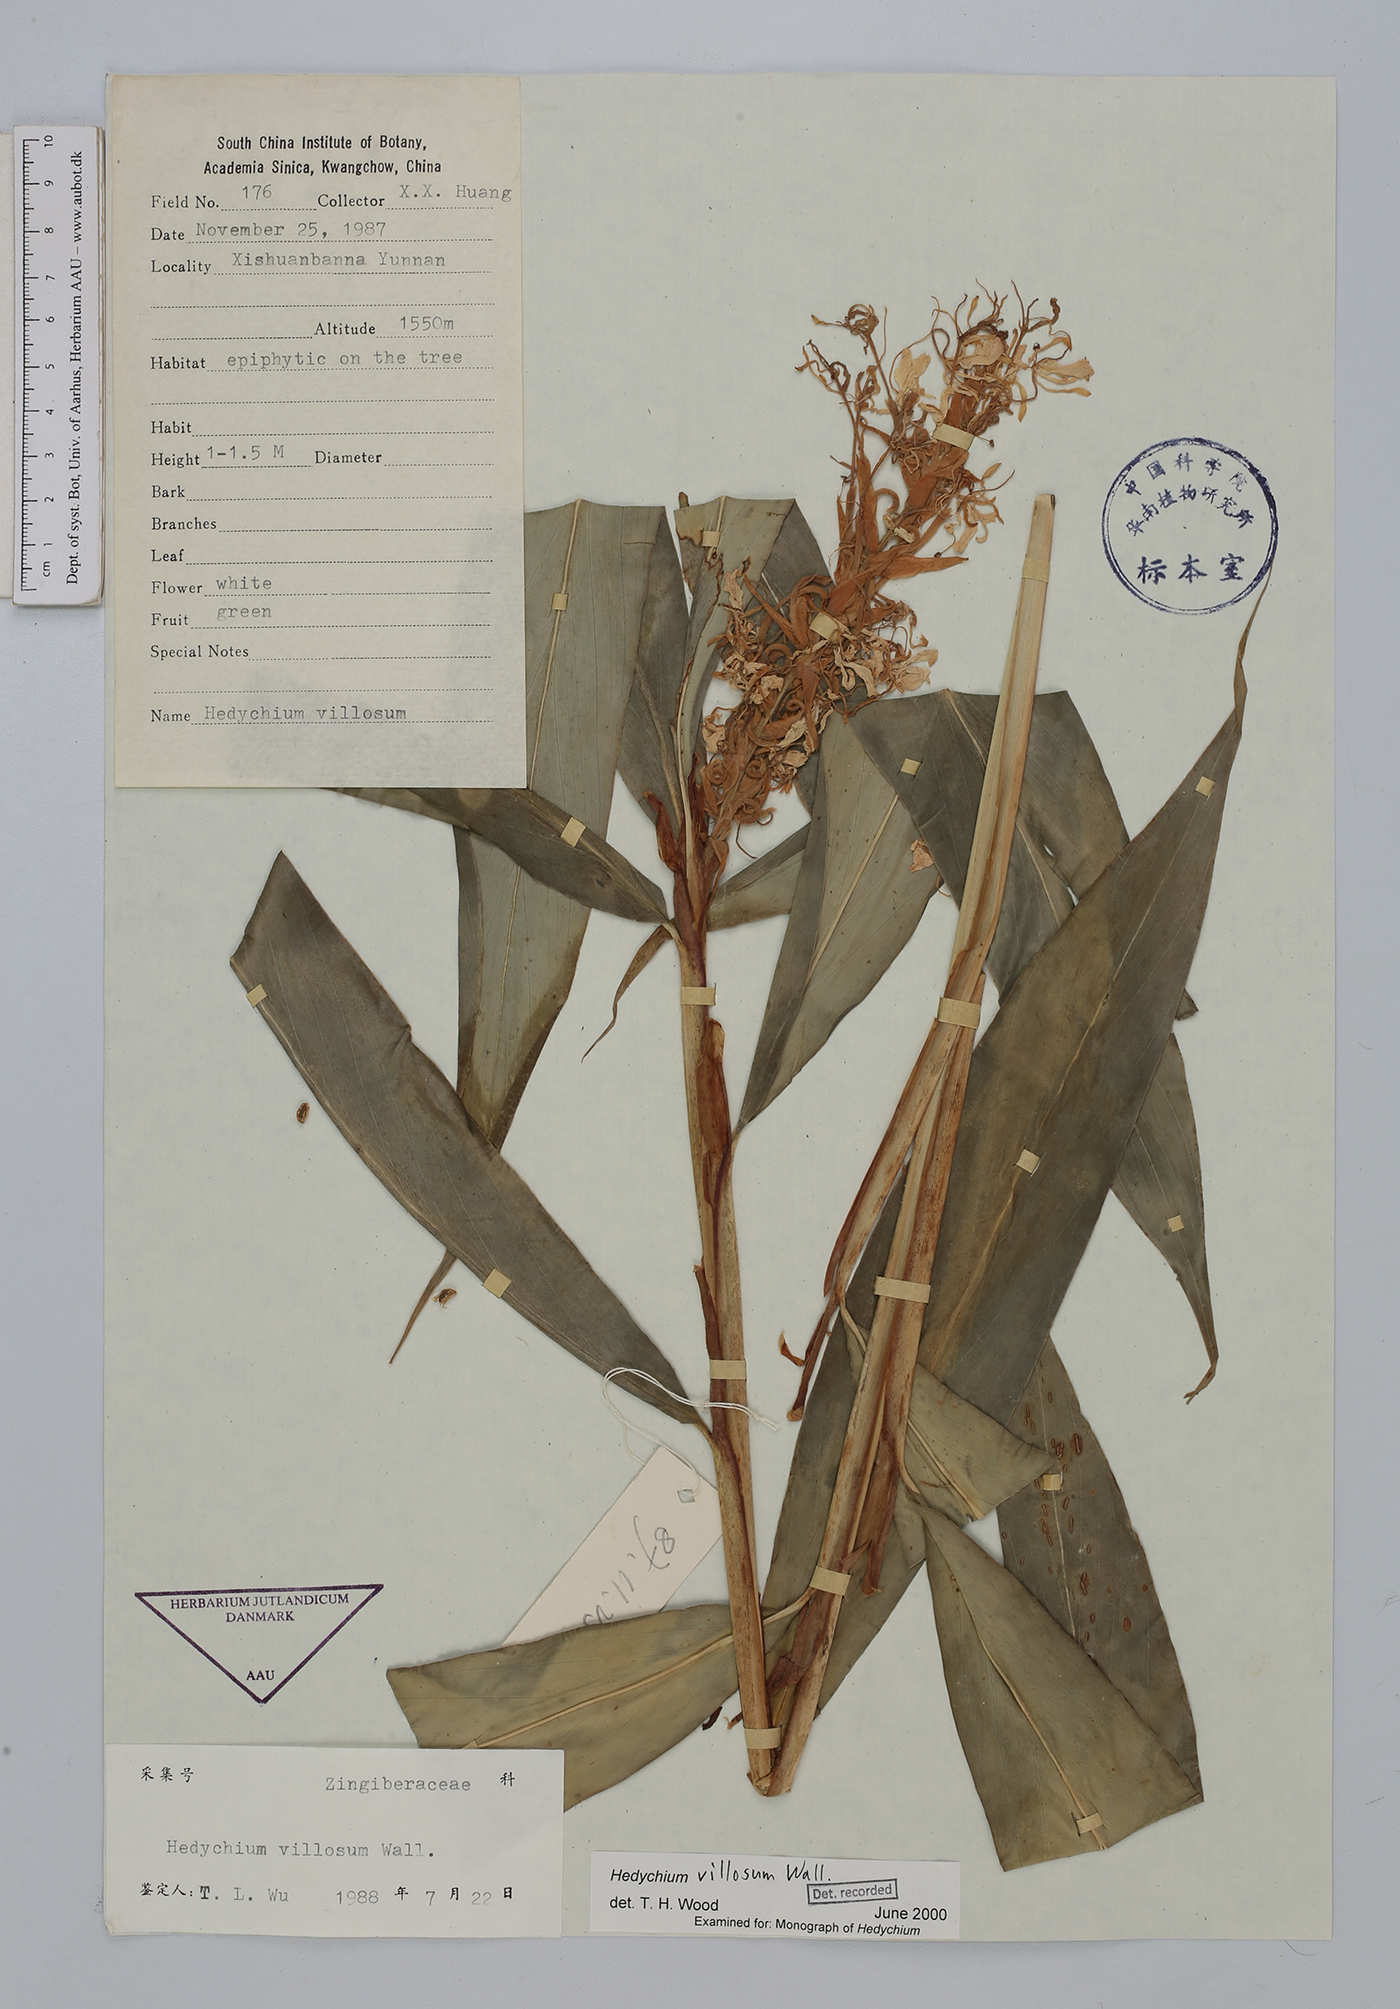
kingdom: Plantae
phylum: Tracheophyta
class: Liliopsida
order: Zingiberales
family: Zingiberaceae
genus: Hedychium
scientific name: Hedychium villosum
